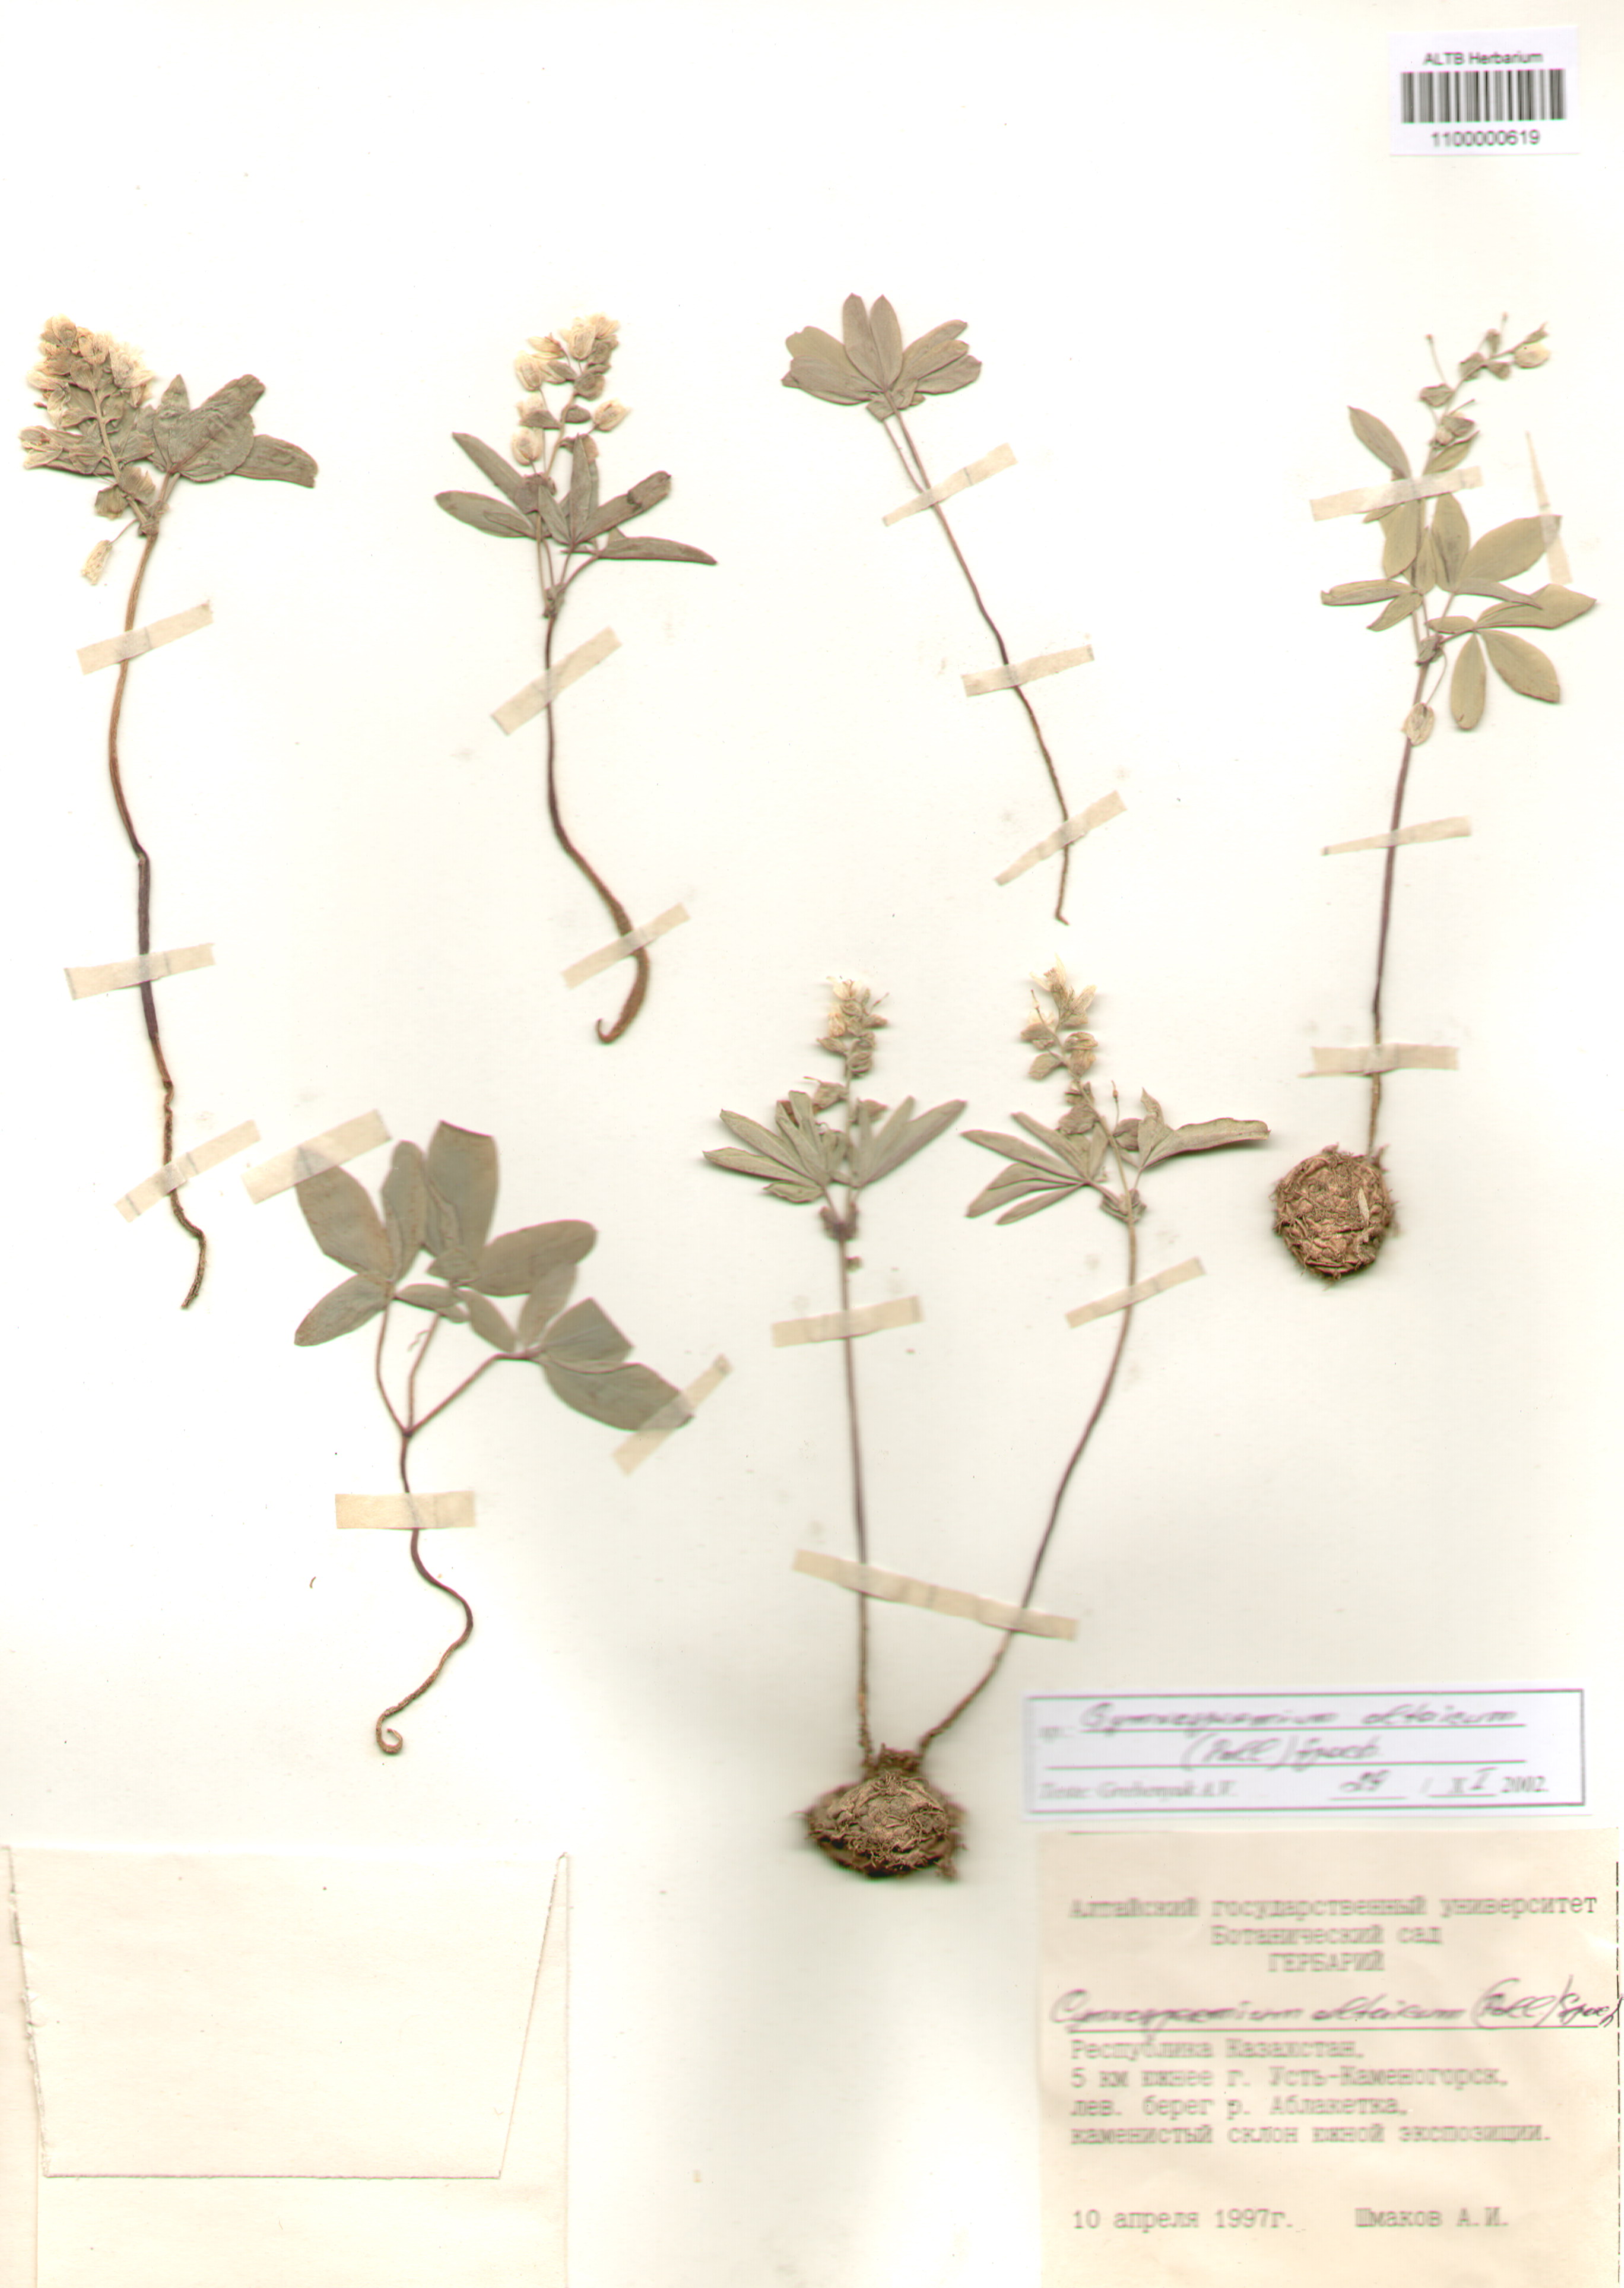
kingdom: Plantae
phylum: Tracheophyta
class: Magnoliopsida
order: Ranunculales
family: Berberidaceae
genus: Gymnospermium
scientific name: Gymnospermium altaicum
